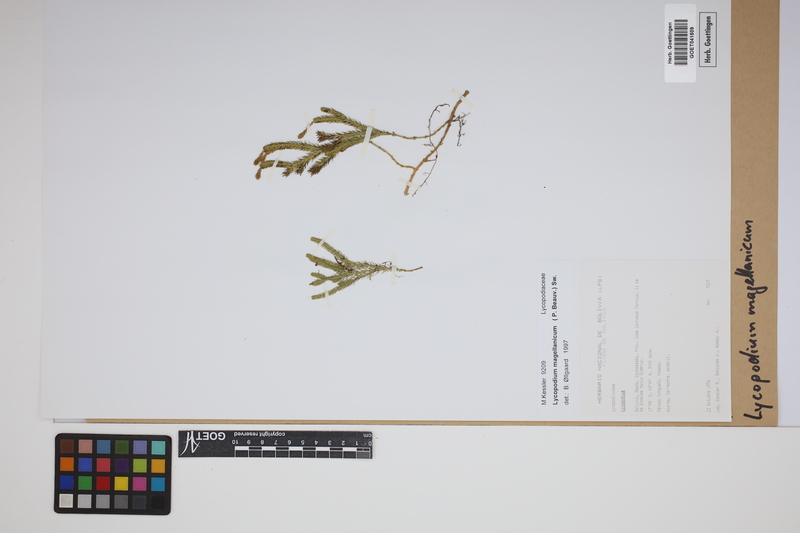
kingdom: Plantae
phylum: Tracheophyta
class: Lycopodiopsida
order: Lycopodiales
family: Lycopodiaceae
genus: Austrolycopodium
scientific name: Austrolycopodium magellanicum
